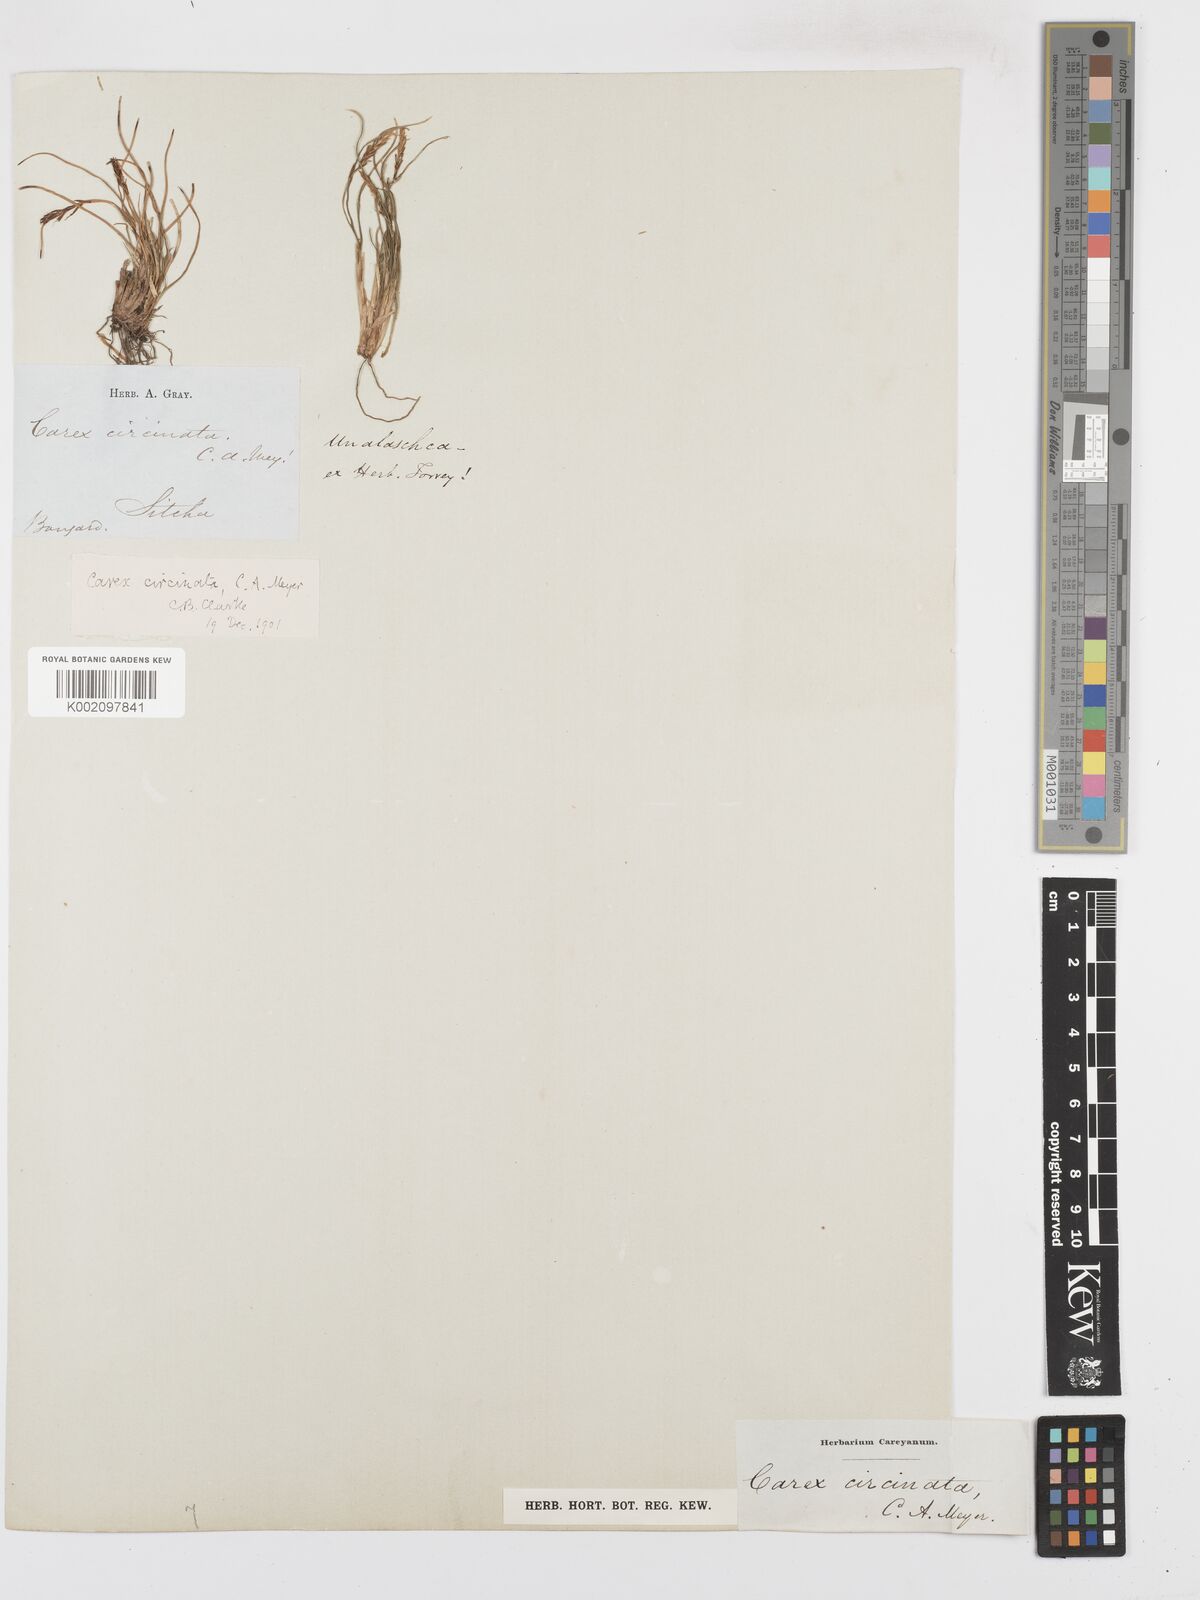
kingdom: Plantae
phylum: Tracheophyta
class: Liliopsida
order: Poales
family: Cyperaceae
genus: Carex
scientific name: Carex circinata
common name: Coiled sedge
